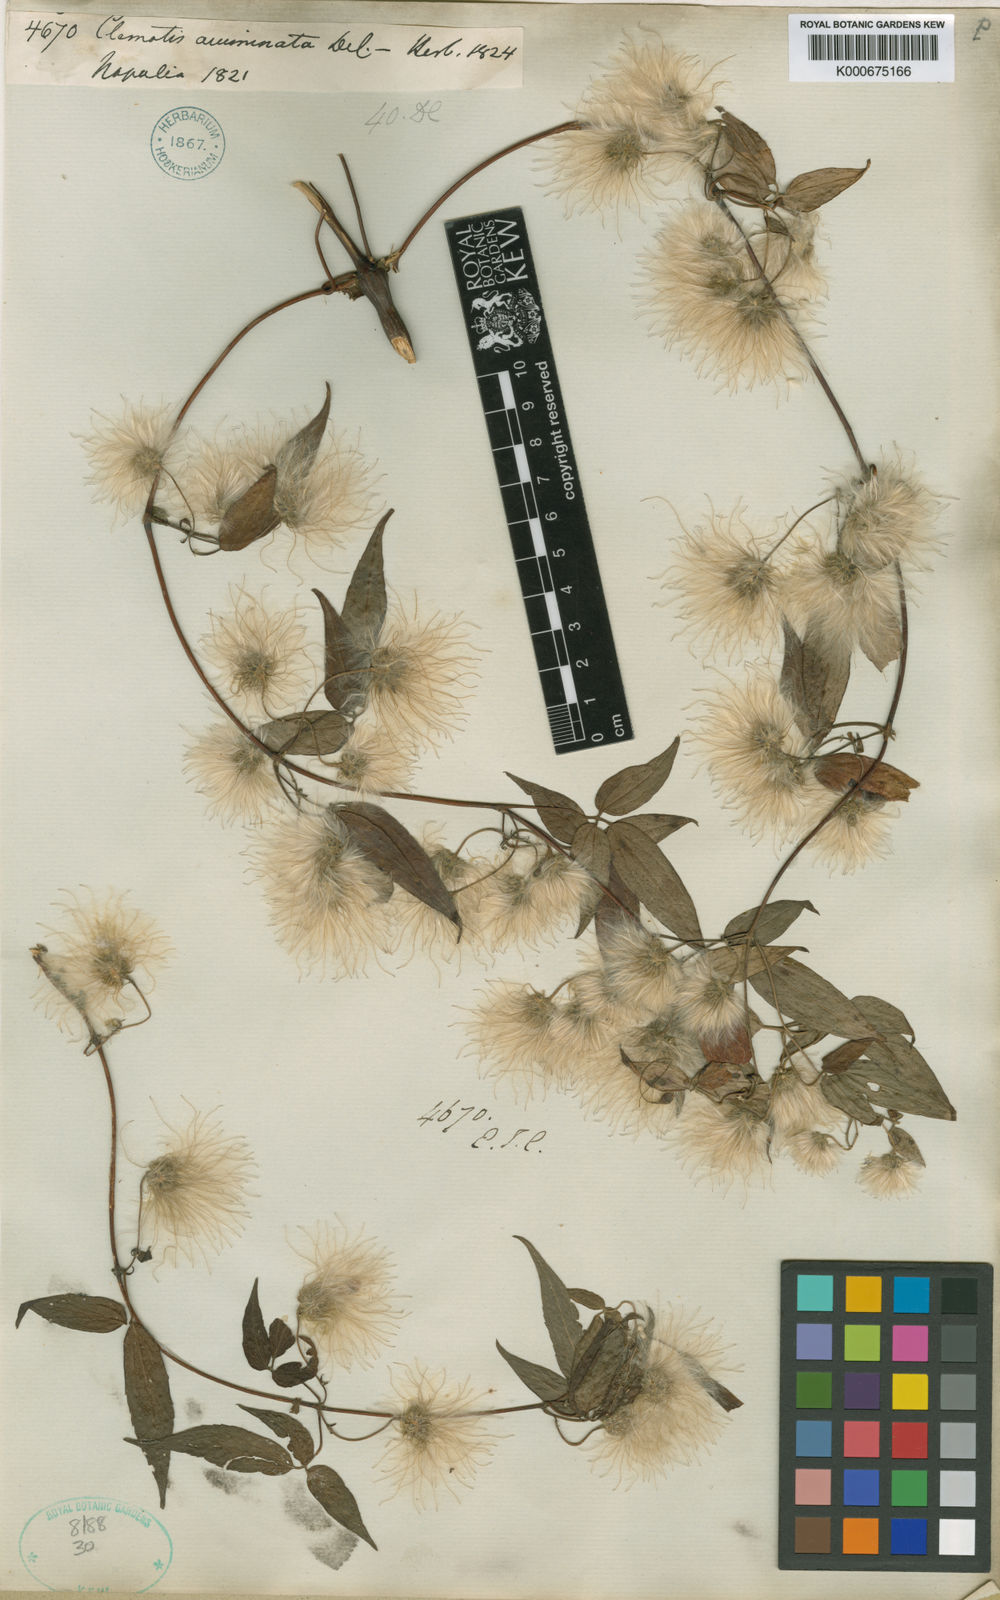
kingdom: Plantae
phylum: Tracheophyta
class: Magnoliopsida
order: Ranunculales
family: Ranunculaceae
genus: Clematis
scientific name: Clematis acuminata
